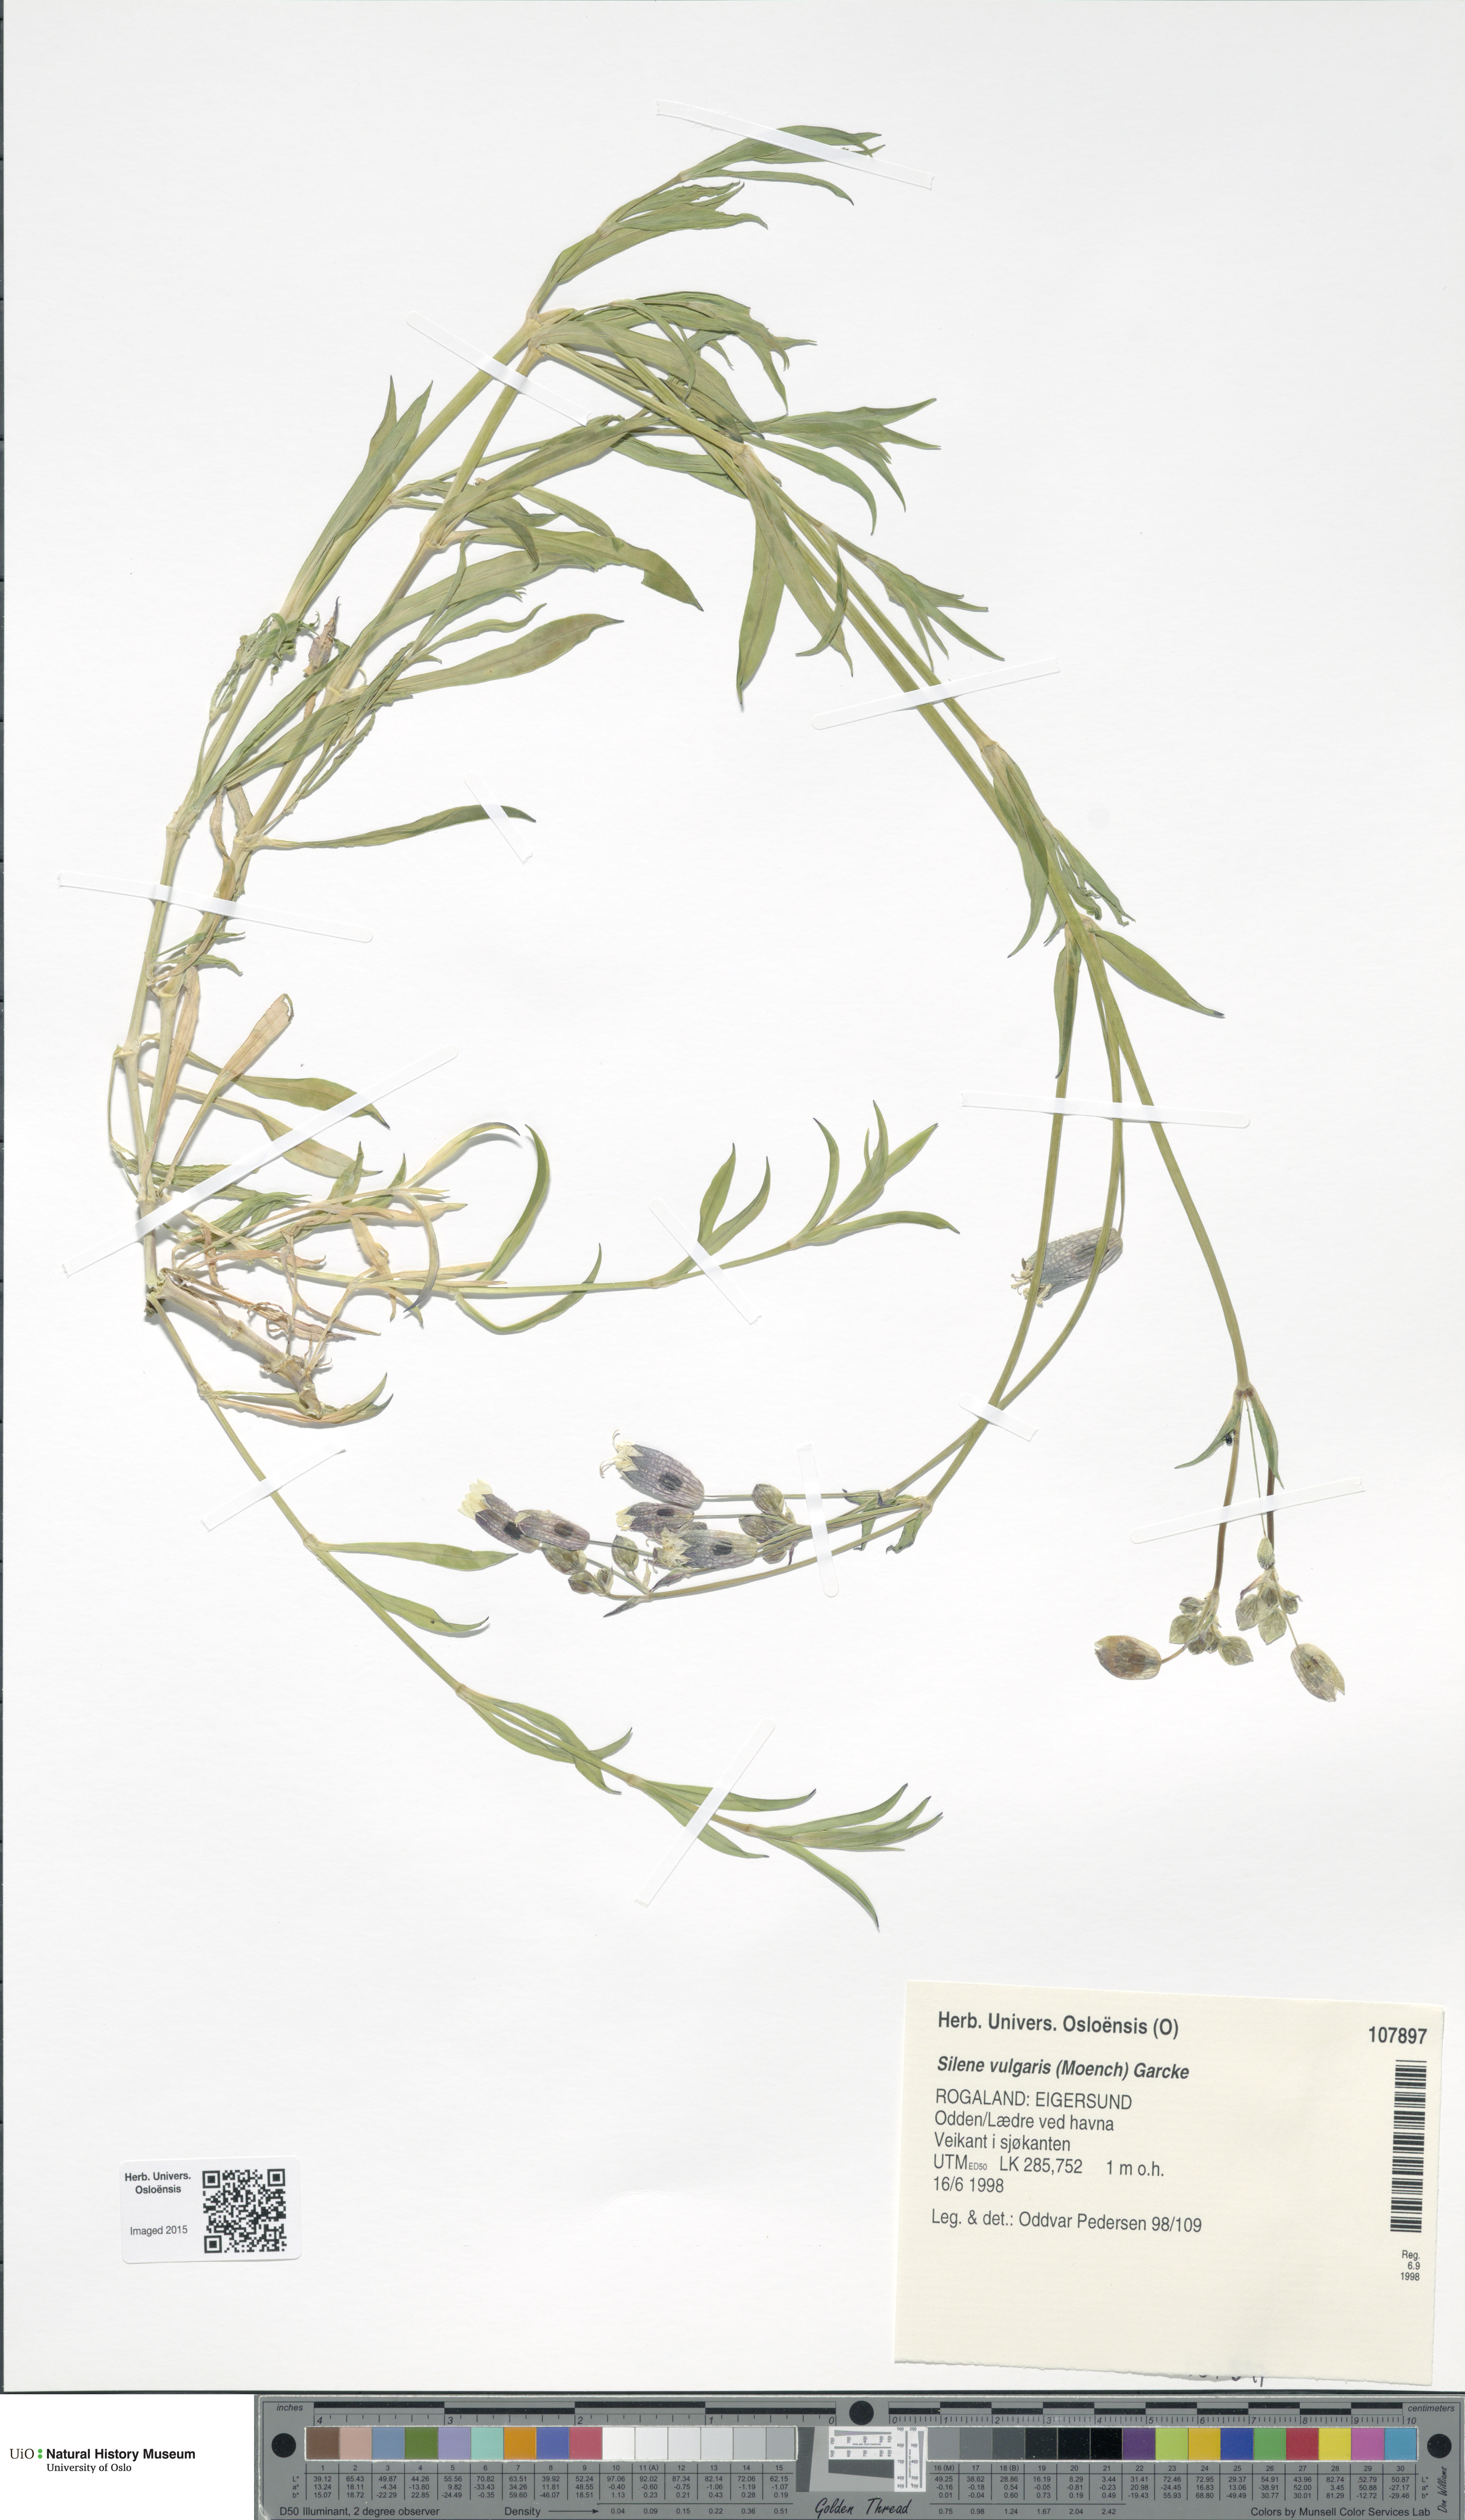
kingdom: Plantae
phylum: Tracheophyta
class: Magnoliopsida
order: Caryophyllales
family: Caryophyllaceae
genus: Silene
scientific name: Silene vulgaris
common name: Bladder campion
